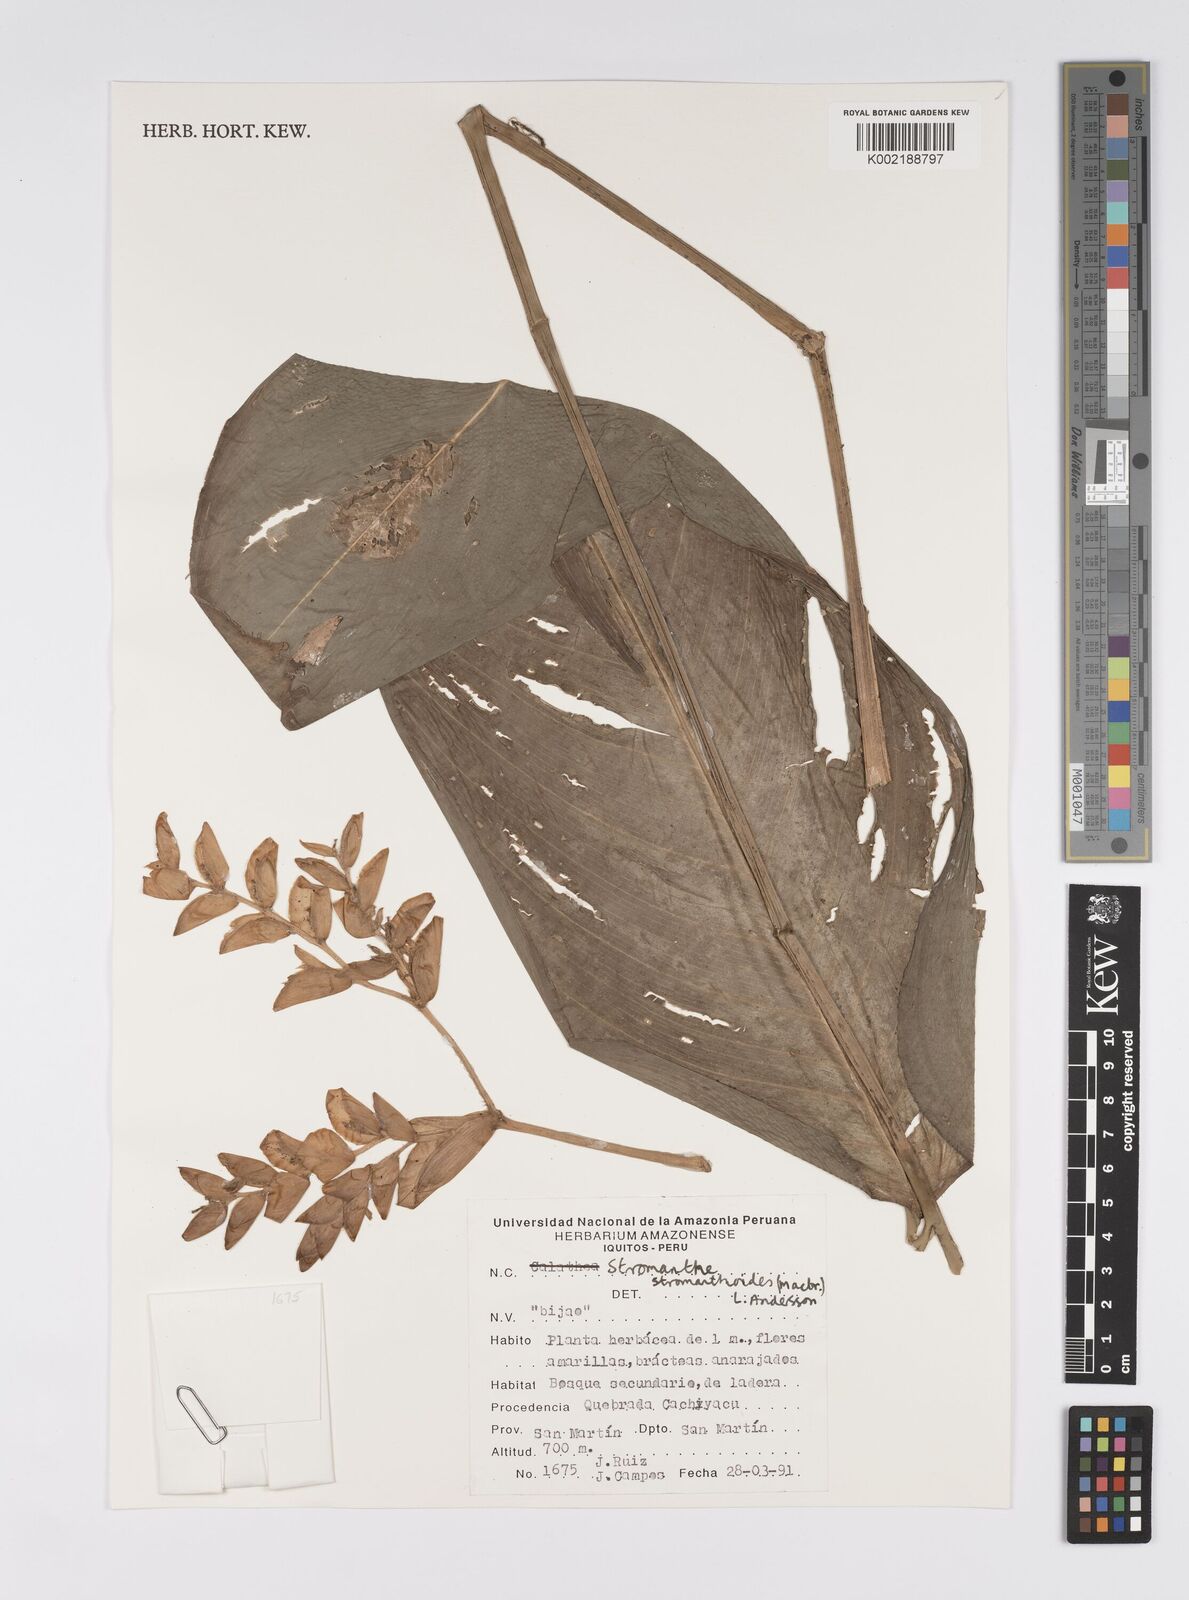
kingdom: Plantae
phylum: Tracheophyta
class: Liliopsida
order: Zingiberales
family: Marantaceae
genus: Stromanthe
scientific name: Stromanthe stromanthoides
